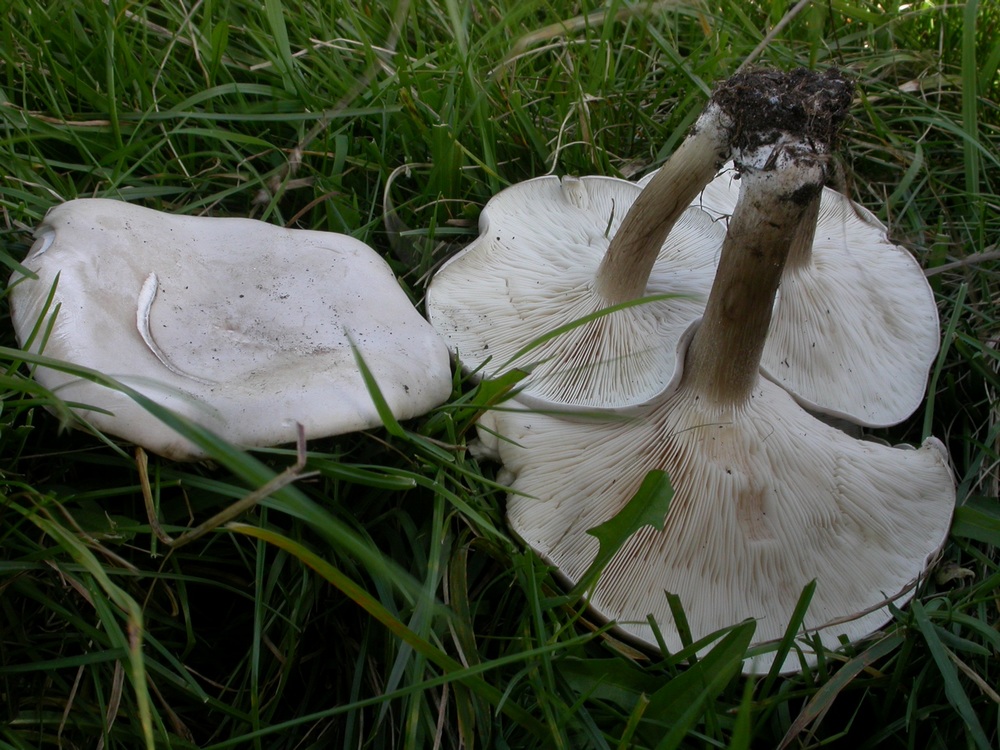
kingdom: Fungi
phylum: Basidiomycota
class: Agaricomycetes
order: Agaricales
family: Tricholomataceae
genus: Melanoleuca
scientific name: Melanoleuca diverticulata
